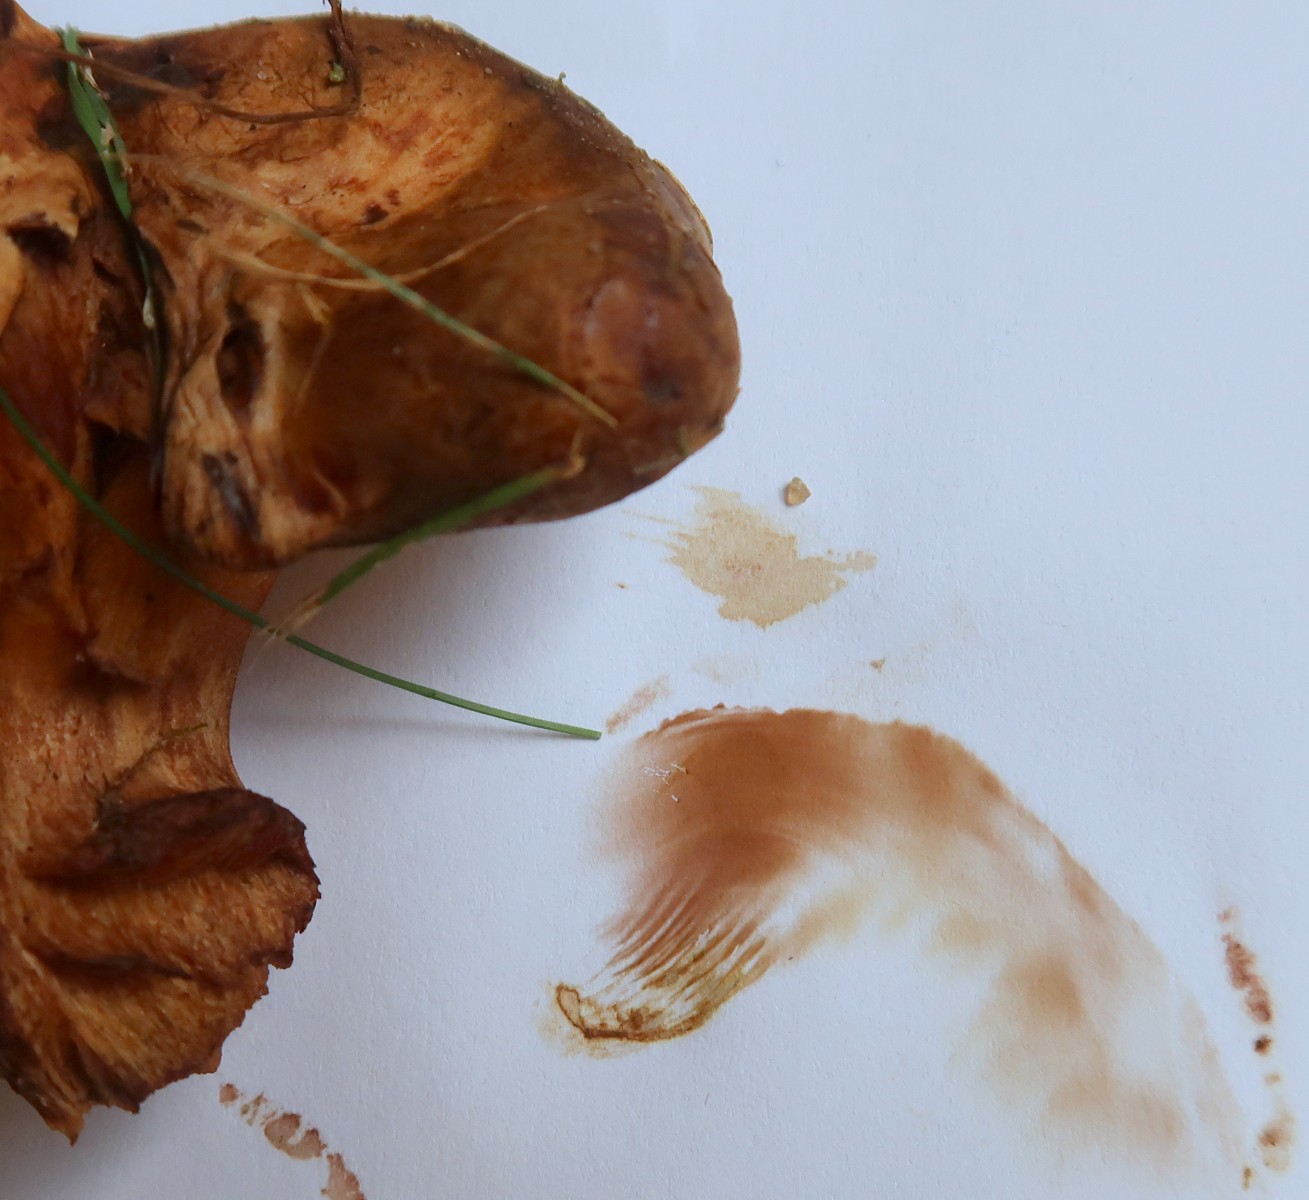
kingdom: Fungi
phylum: Basidiomycota
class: Agaricomycetes
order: Boletales
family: Paxillaceae
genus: Paxillus
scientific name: Paxillus obscurisporus
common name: mahognisporet netbladhat
